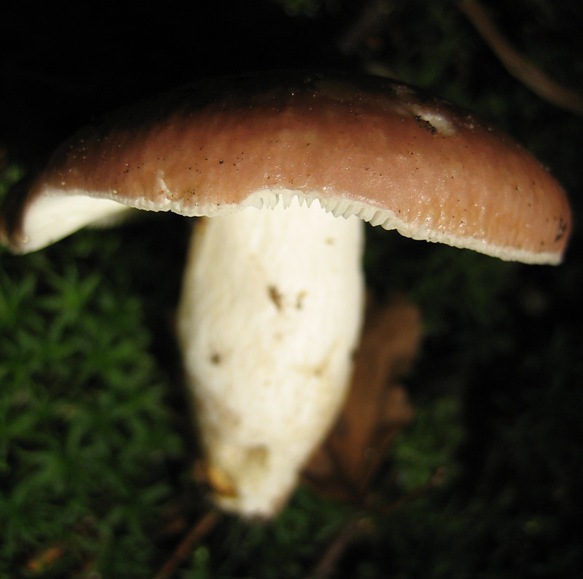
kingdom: Fungi
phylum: Basidiomycota
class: Agaricomycetes
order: Russulales
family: Russulaceae
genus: Russula
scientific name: Russula vesca
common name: spiselig skørhat
